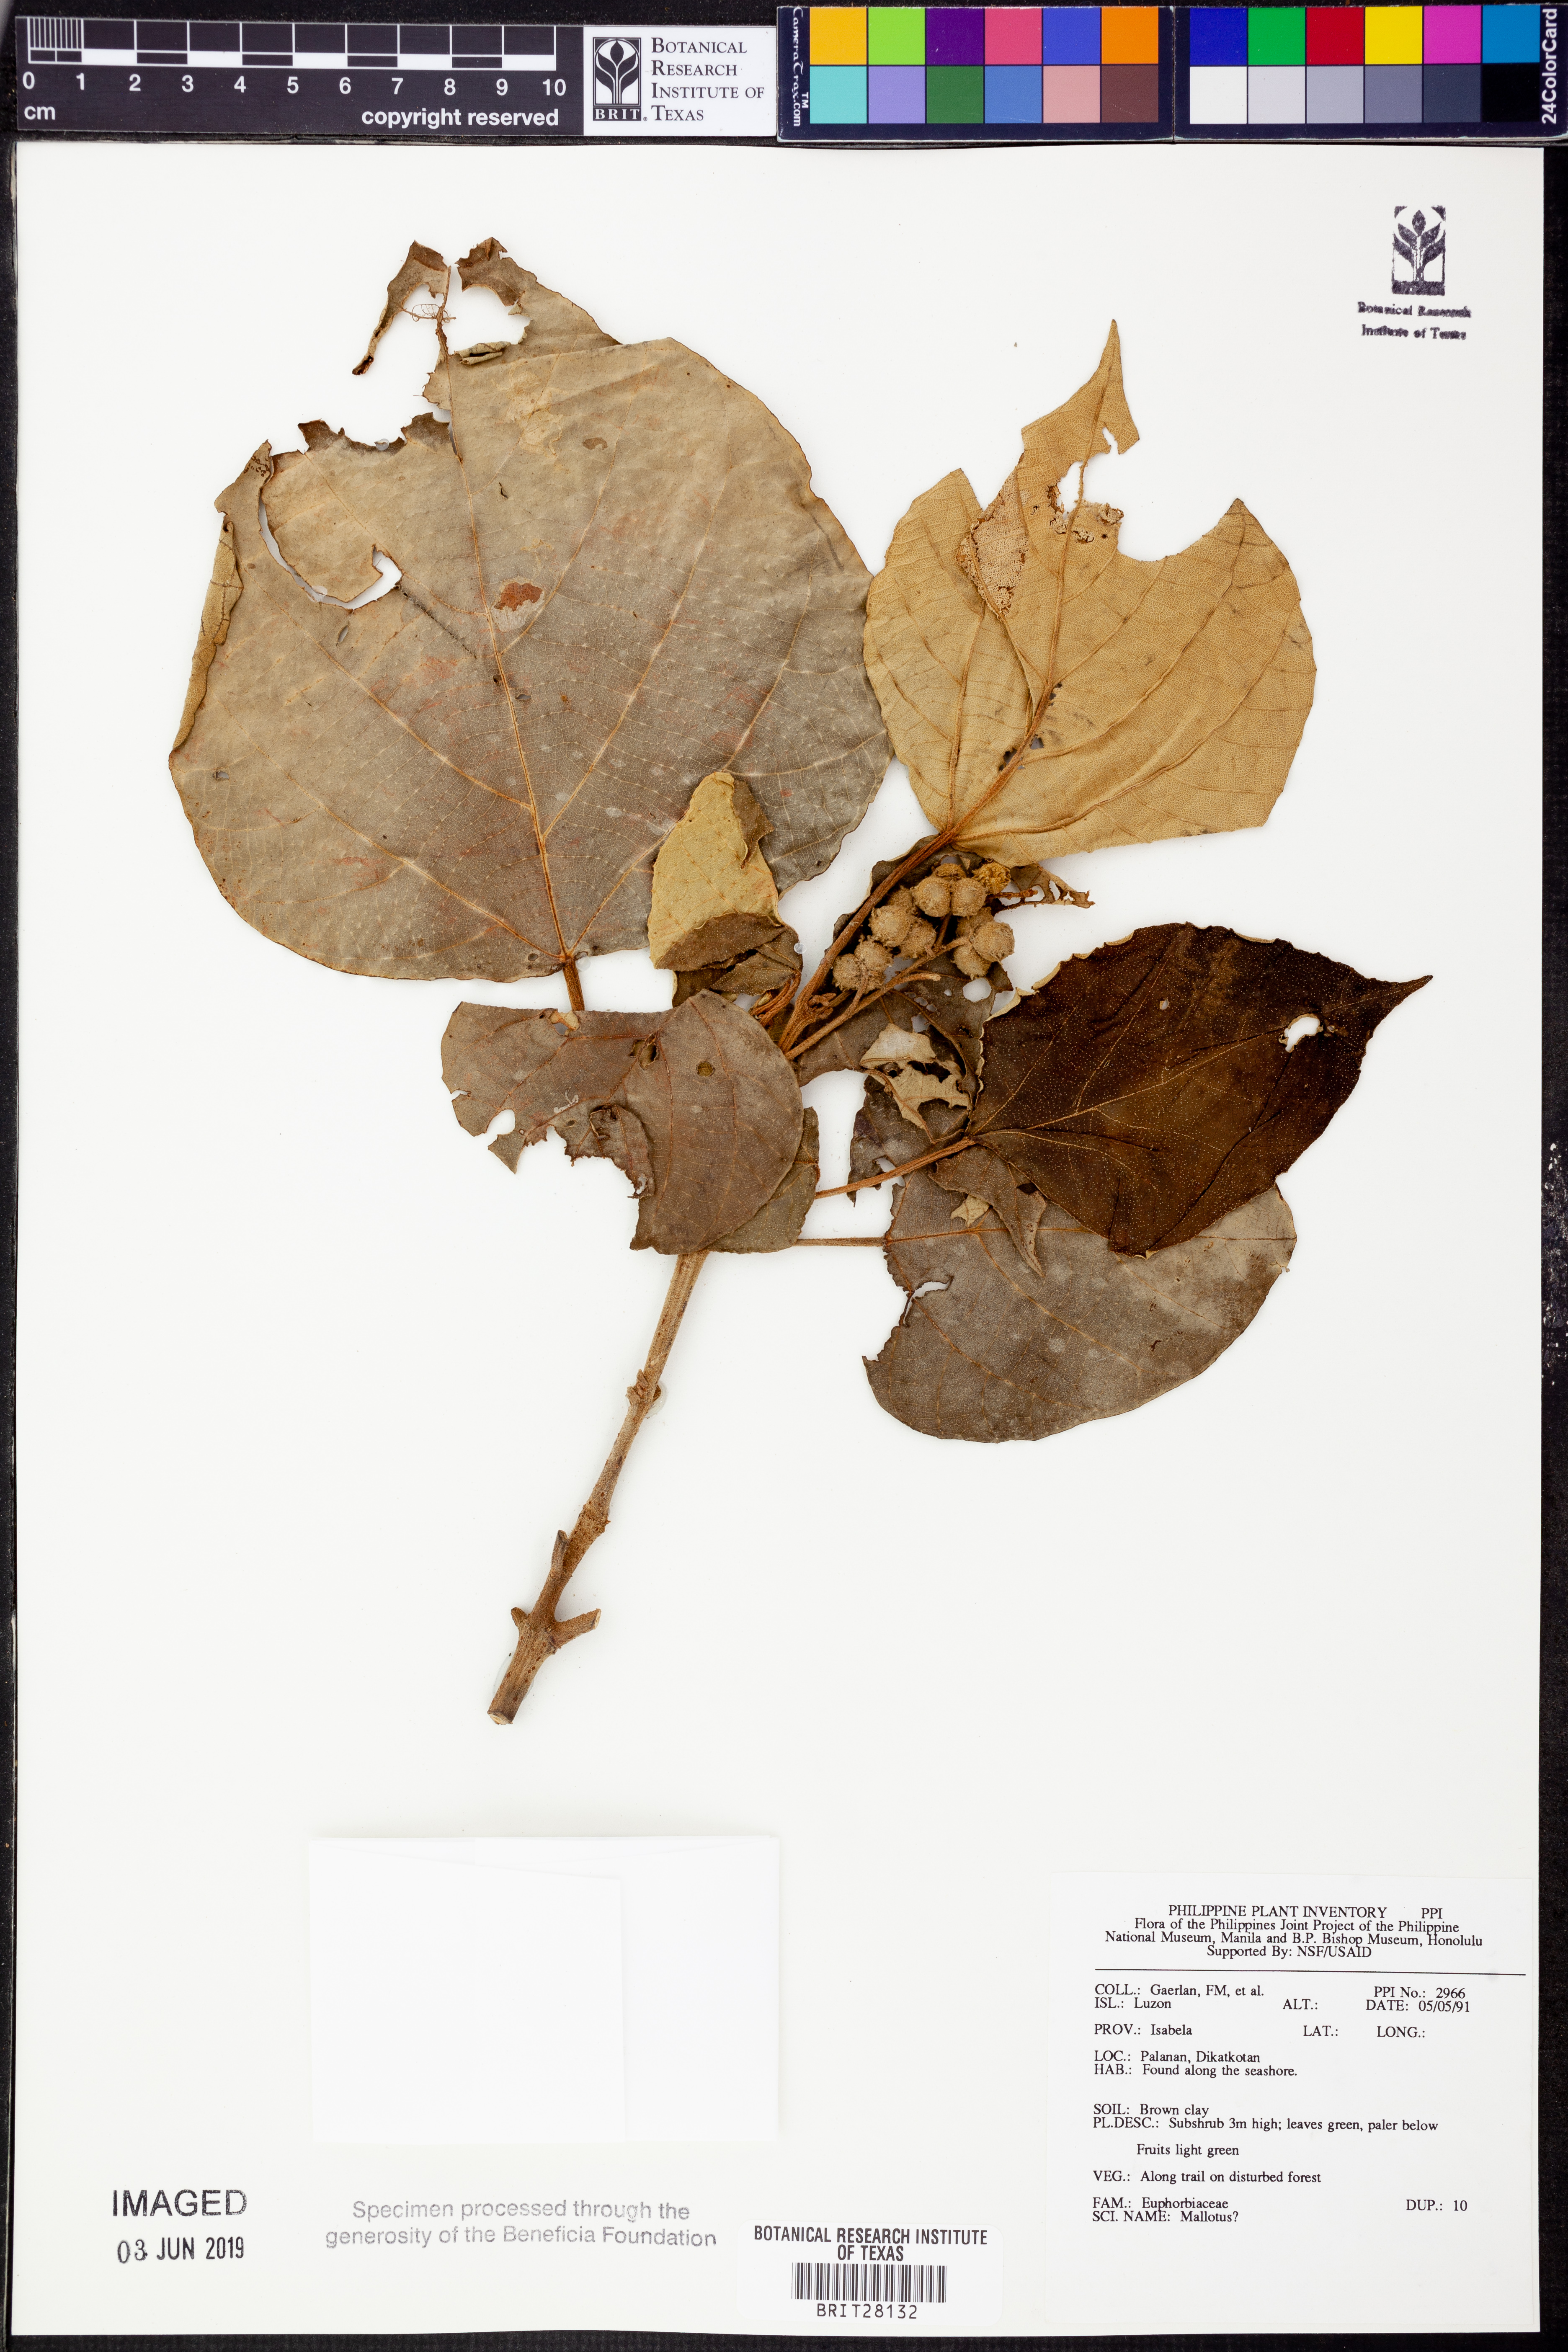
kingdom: Plantae
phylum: Tracheophyta
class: Magnoliopsida
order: Malpighiales
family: Euphorbiaceae
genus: Mallotus
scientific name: Mallotus
